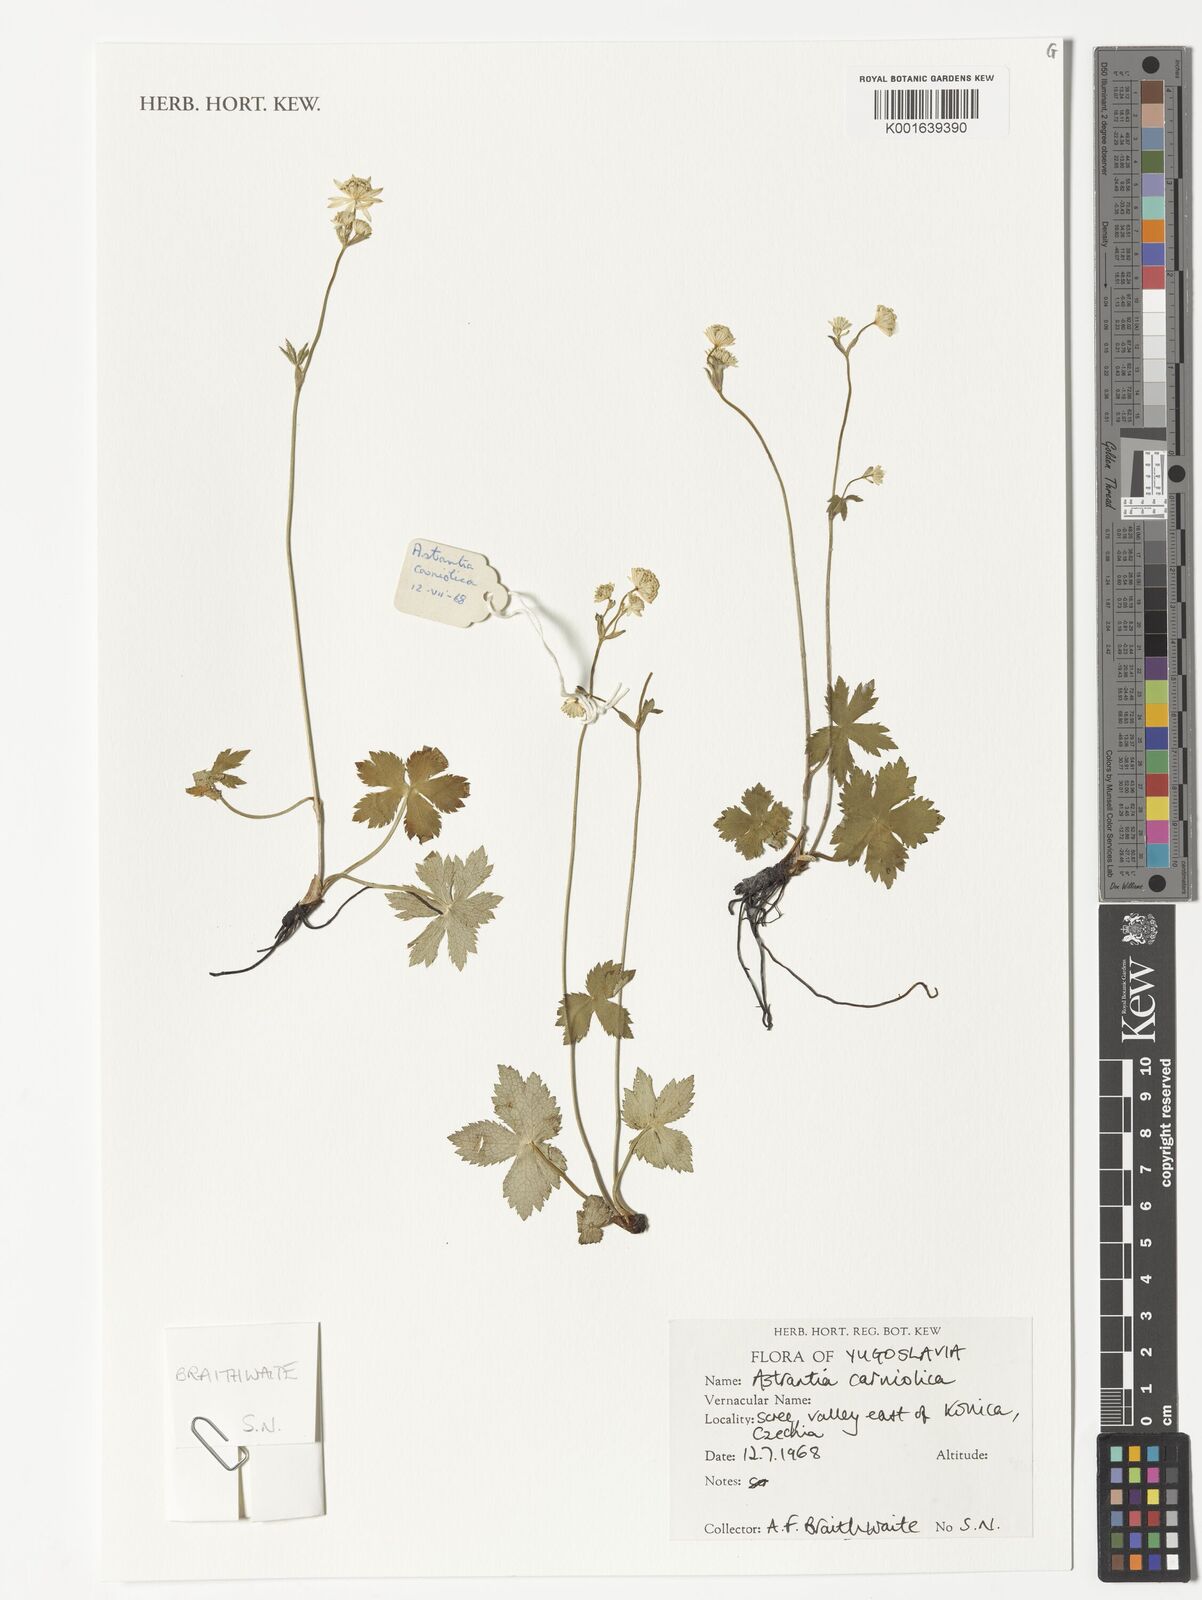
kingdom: Plantae
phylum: Tracheophyta
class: Magnoliopsida
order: Apiales
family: Apiaceae
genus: Astrantia
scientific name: Astrantia carniolica
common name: Carnic masterwort
